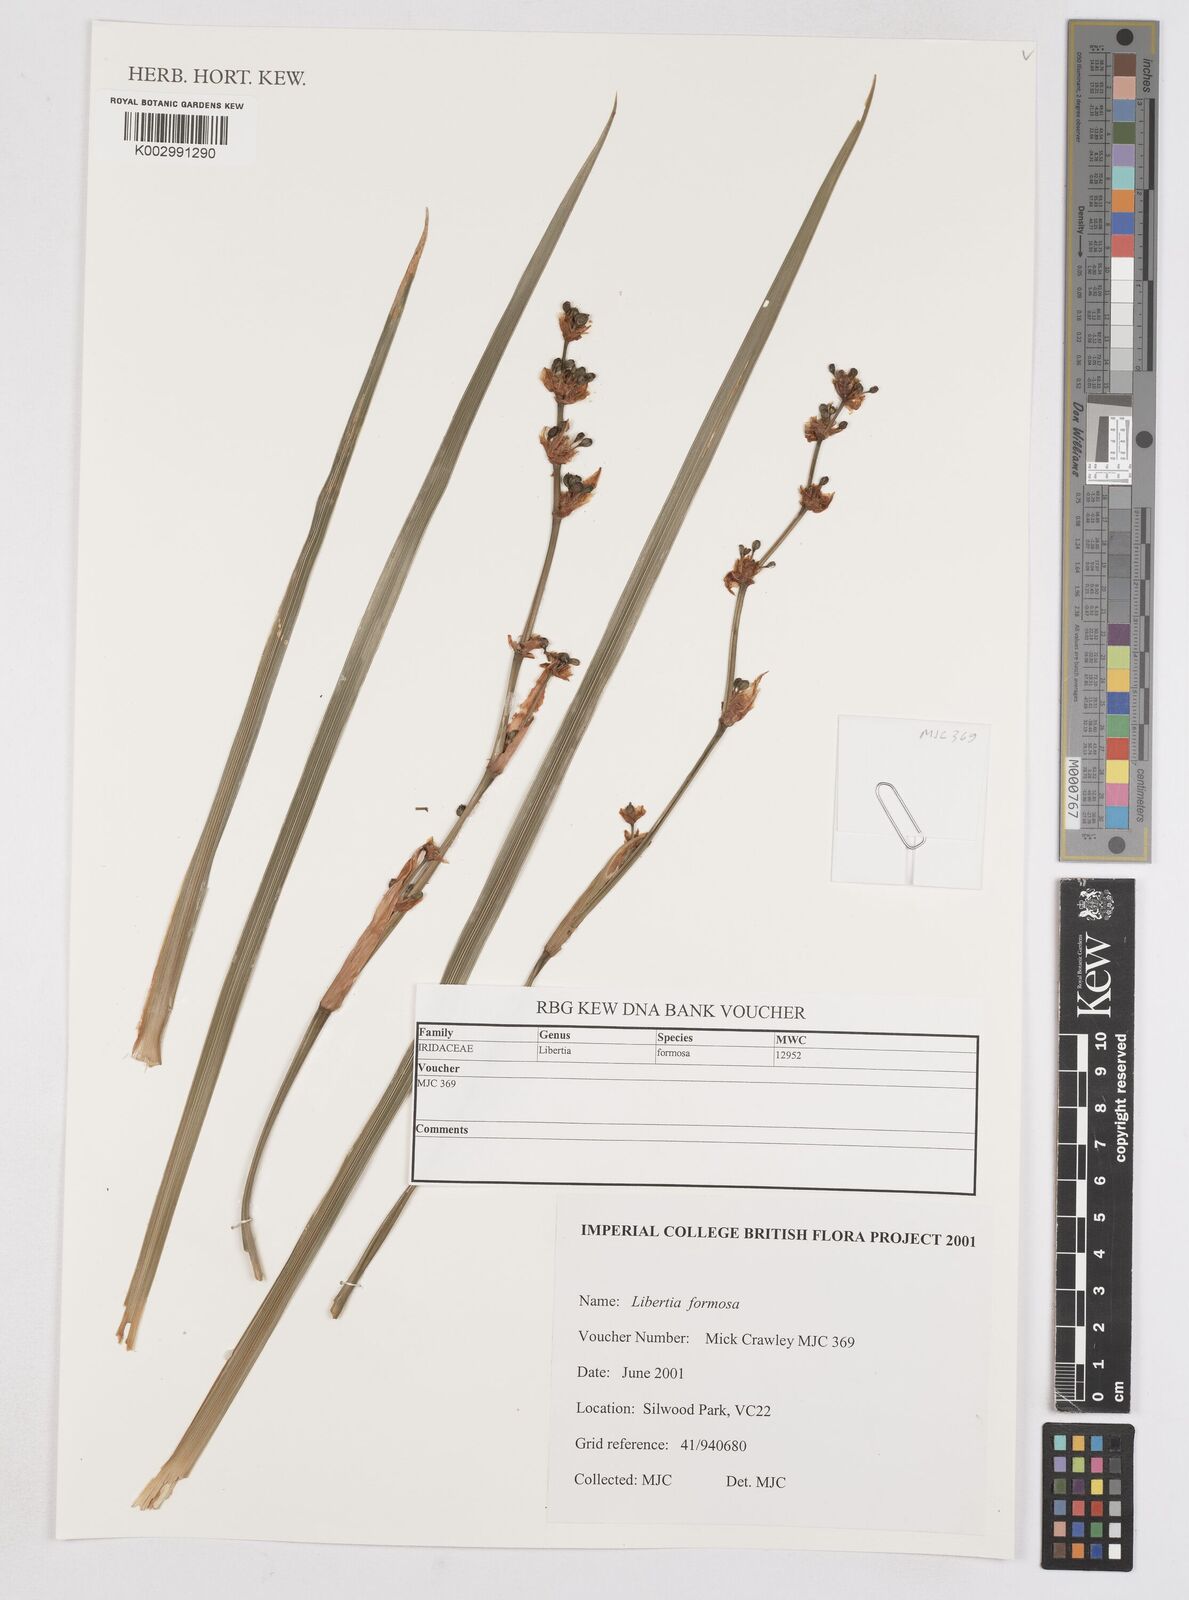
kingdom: Plantae
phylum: Tracheophyta
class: Liliopsida
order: Asparagales
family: Iridaceae
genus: Libertia
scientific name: Libertia chilensis
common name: Satin flower
